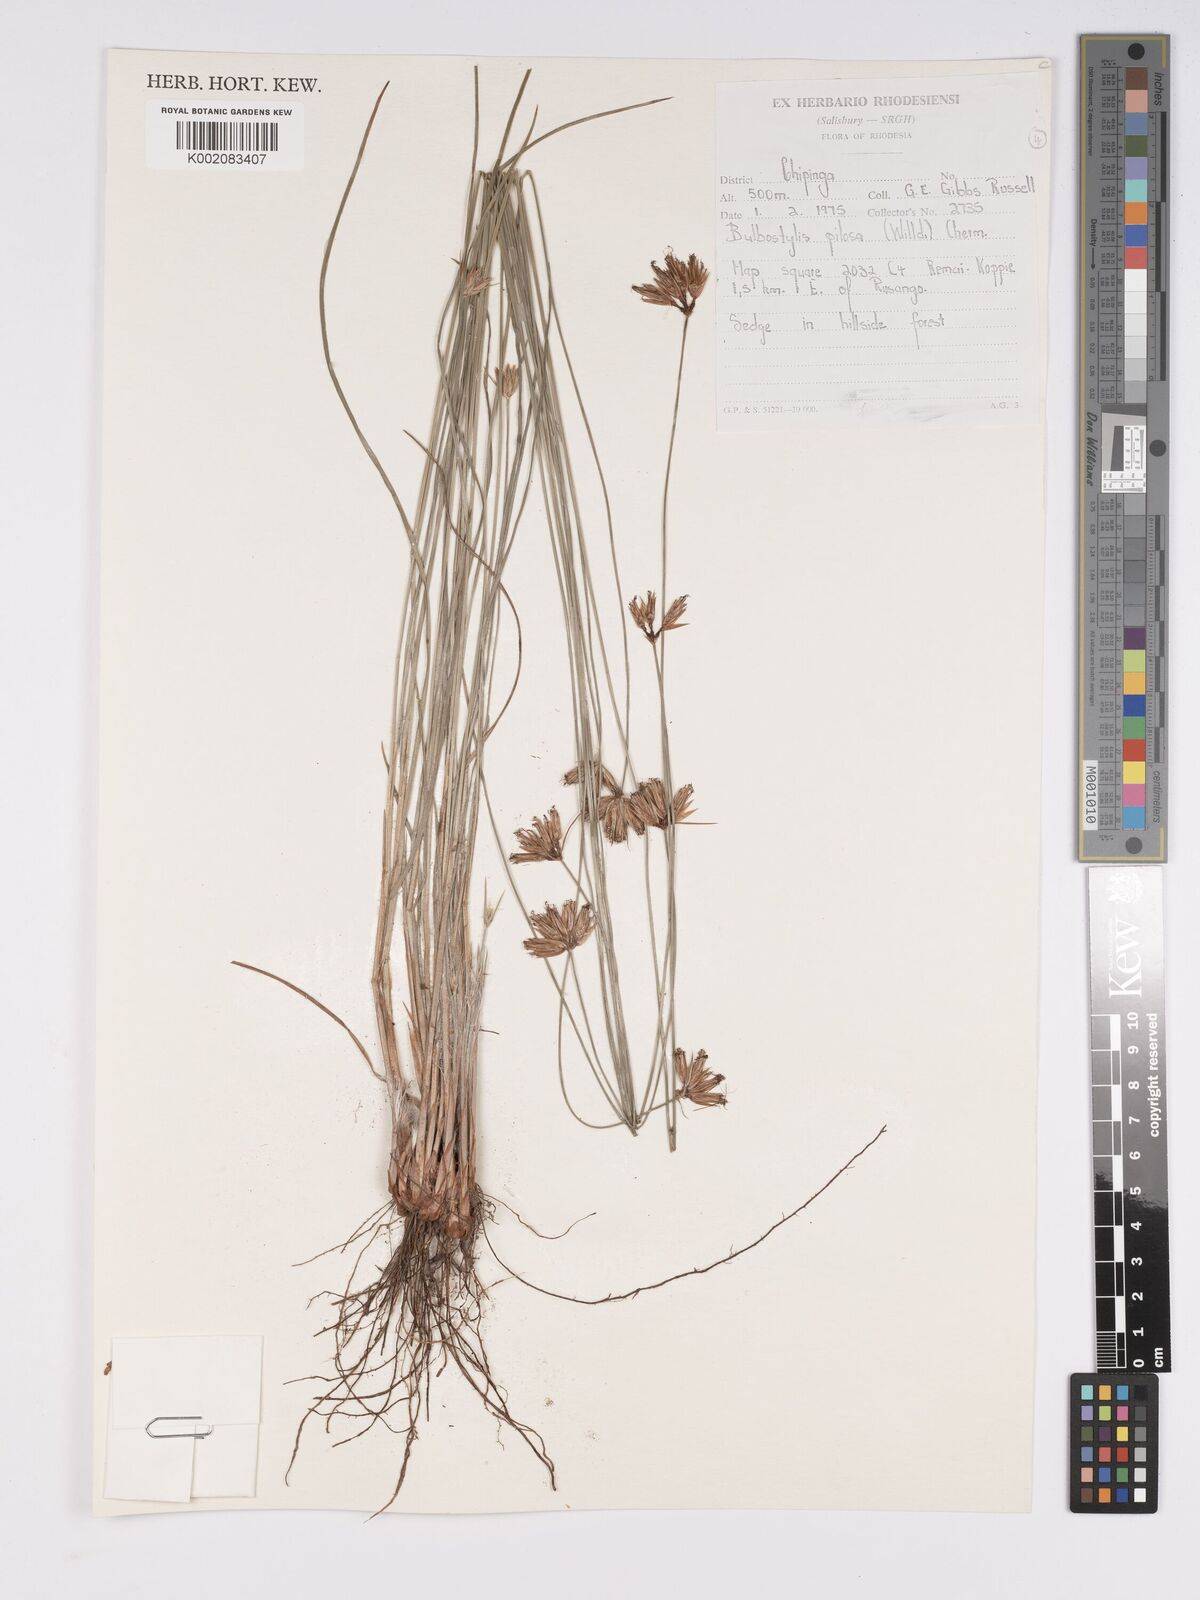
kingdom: Plantae
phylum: Tracheophyta
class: Liliopsida
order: Poales
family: Cyperaceae
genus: Bulbostylis
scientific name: Bulbostylis pilosa
